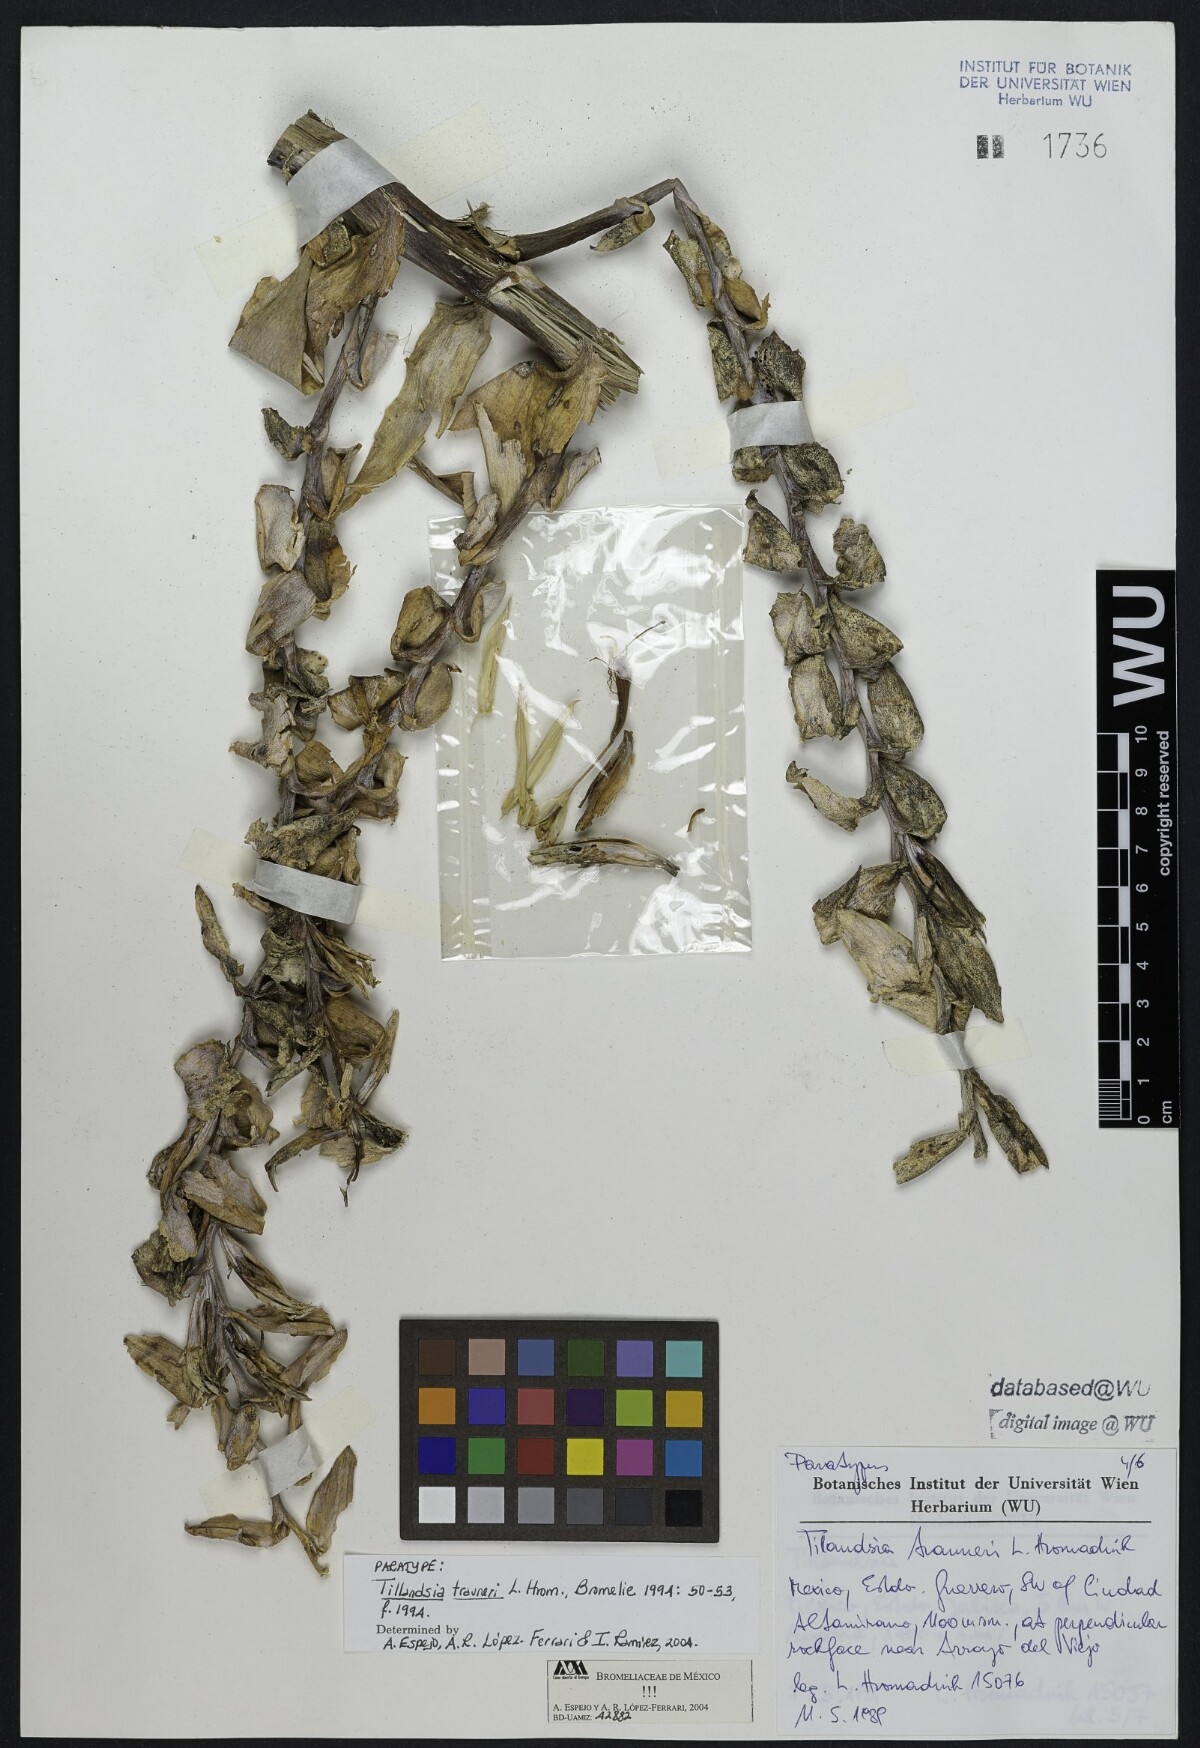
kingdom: Plantae
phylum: Tracheophyta
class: Liliopsida
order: Poales
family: Bromeliaceae
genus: Tillandsia
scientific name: Tillandsia trauneri
